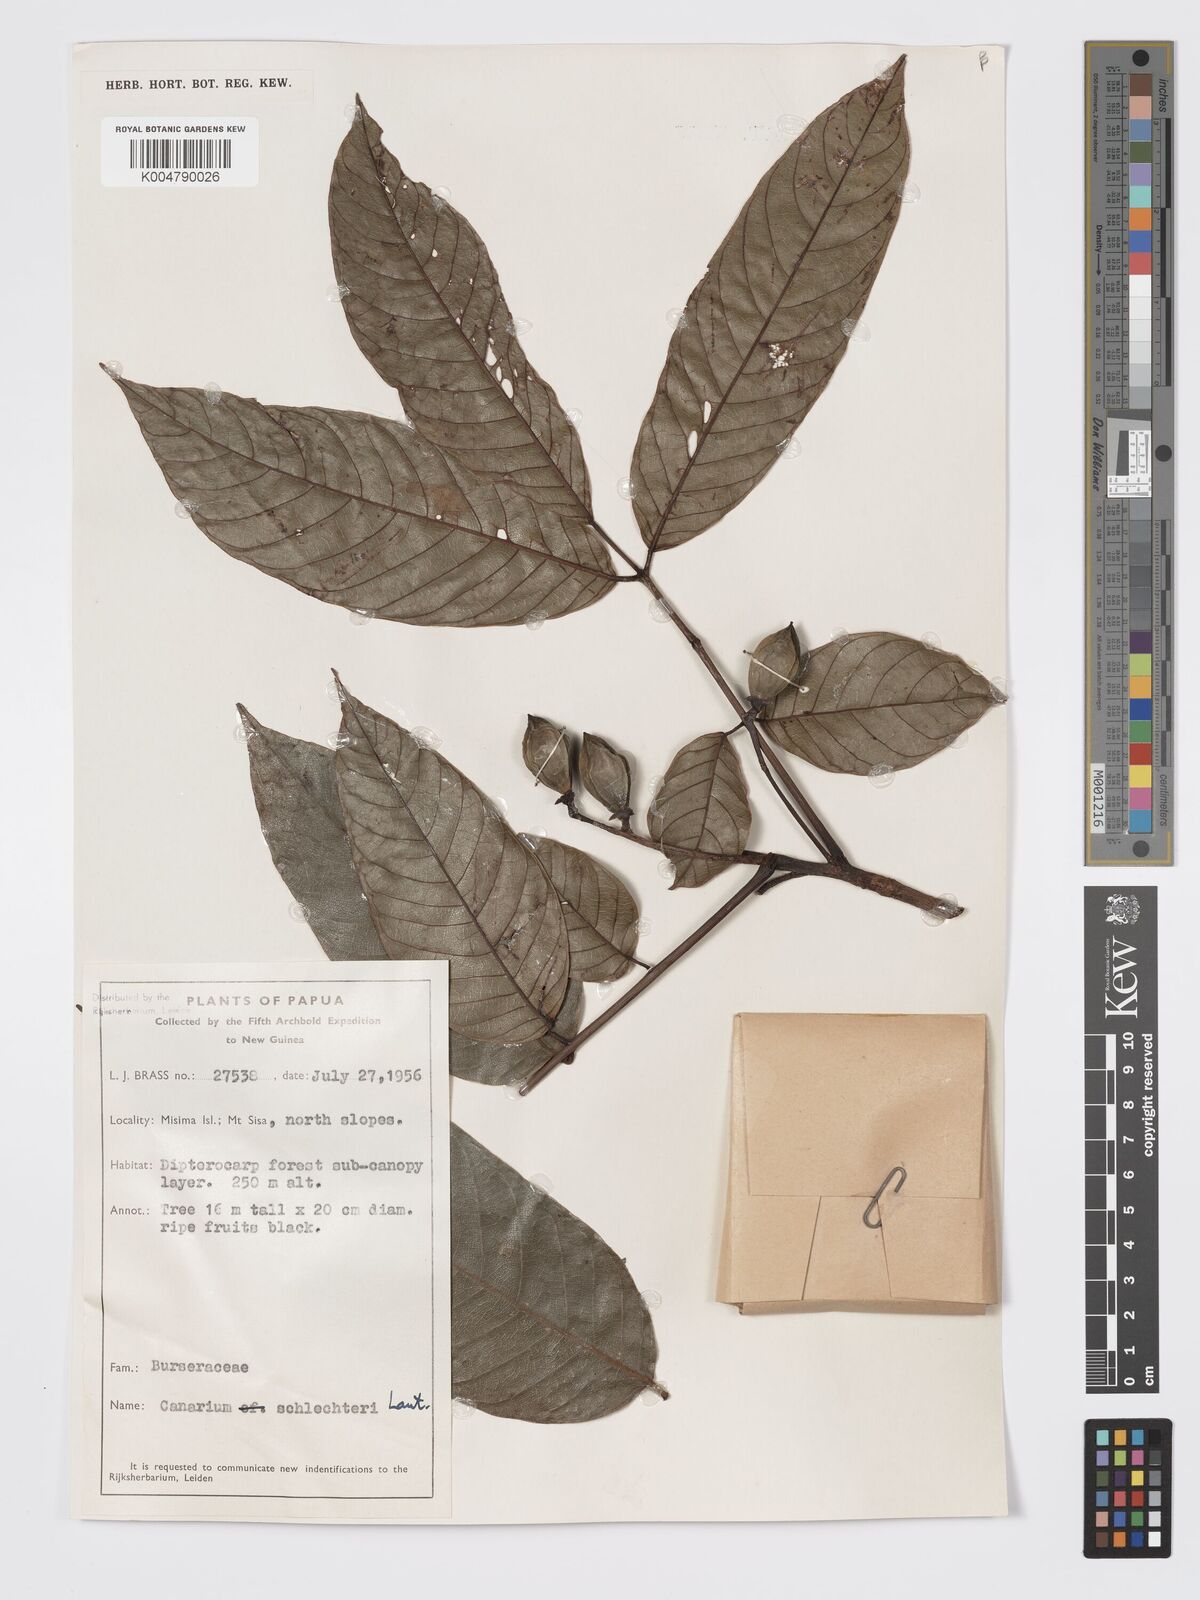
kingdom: Plantae
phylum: Tracheophyta
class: Magnoliopsida
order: Sapindales
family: Burseraceae
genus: Canarium
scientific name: Canarium schlechteri
